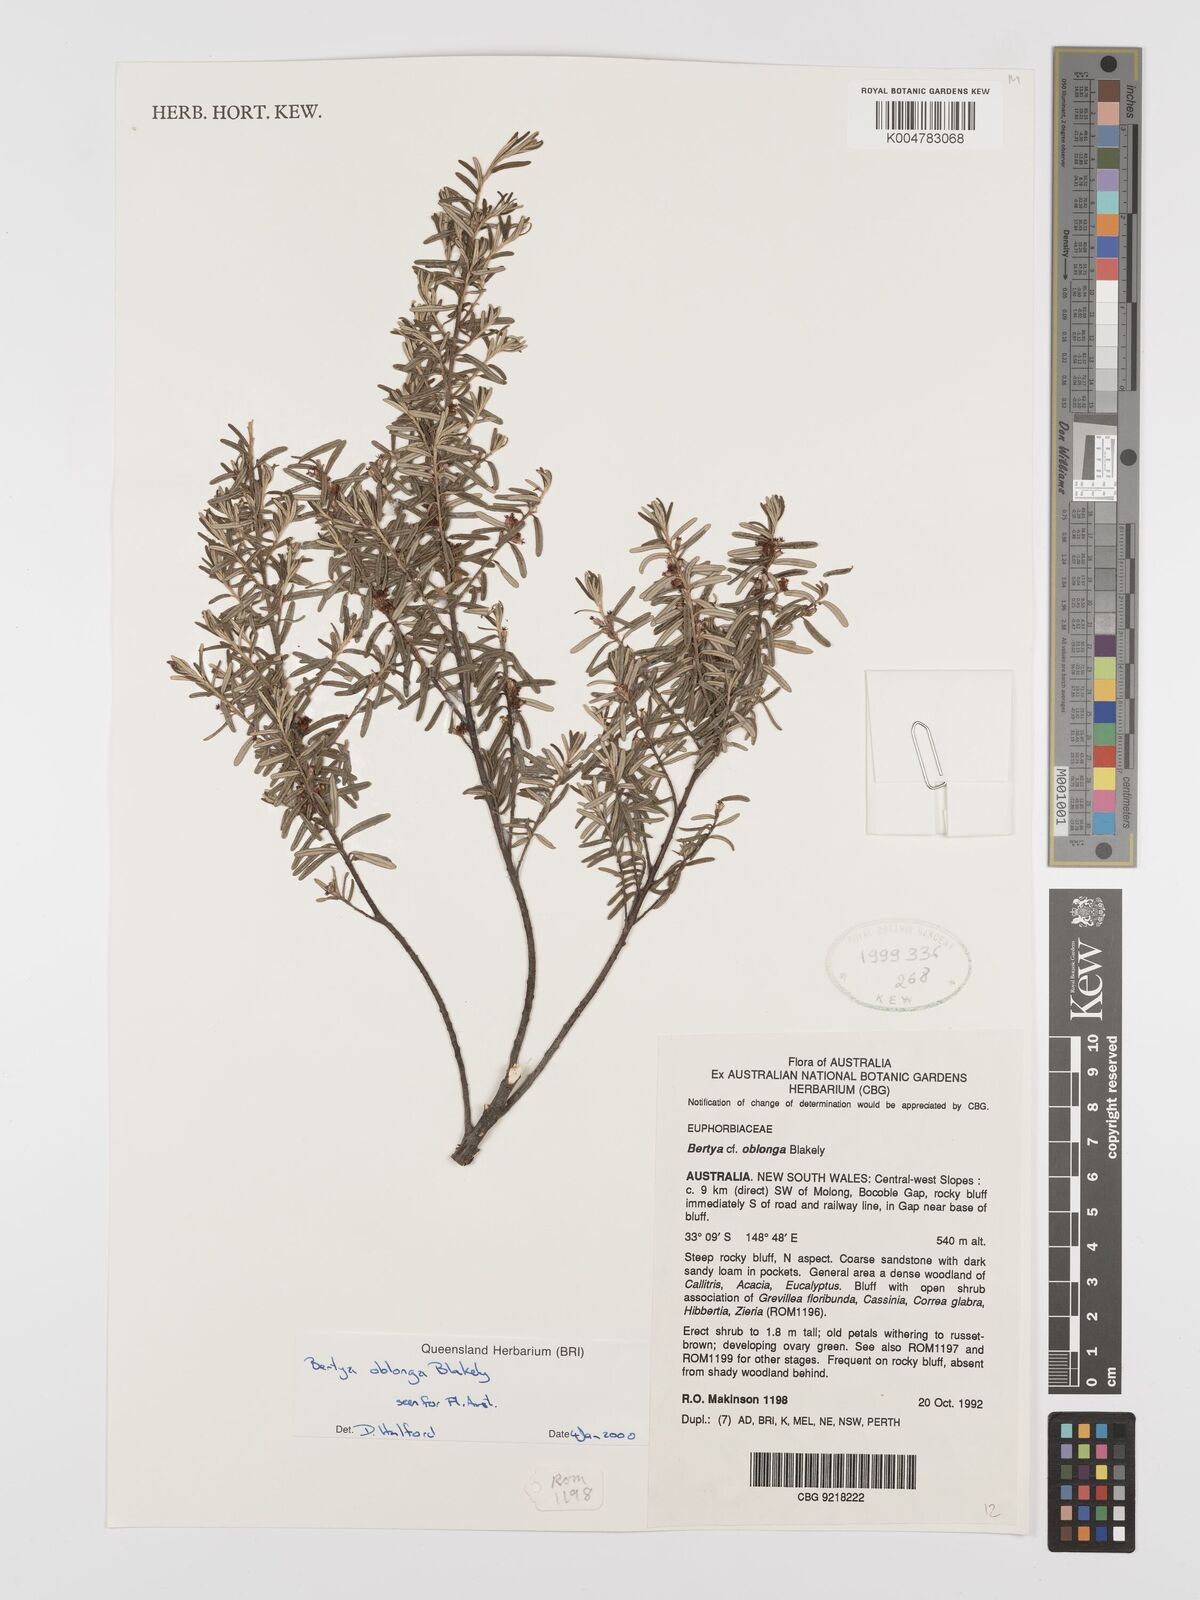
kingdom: Plantae
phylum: Tracheophyta
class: Magnoliopsida
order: Malpighiales
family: Euphorbiaceae
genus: Bertya
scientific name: Bertya oblonga
